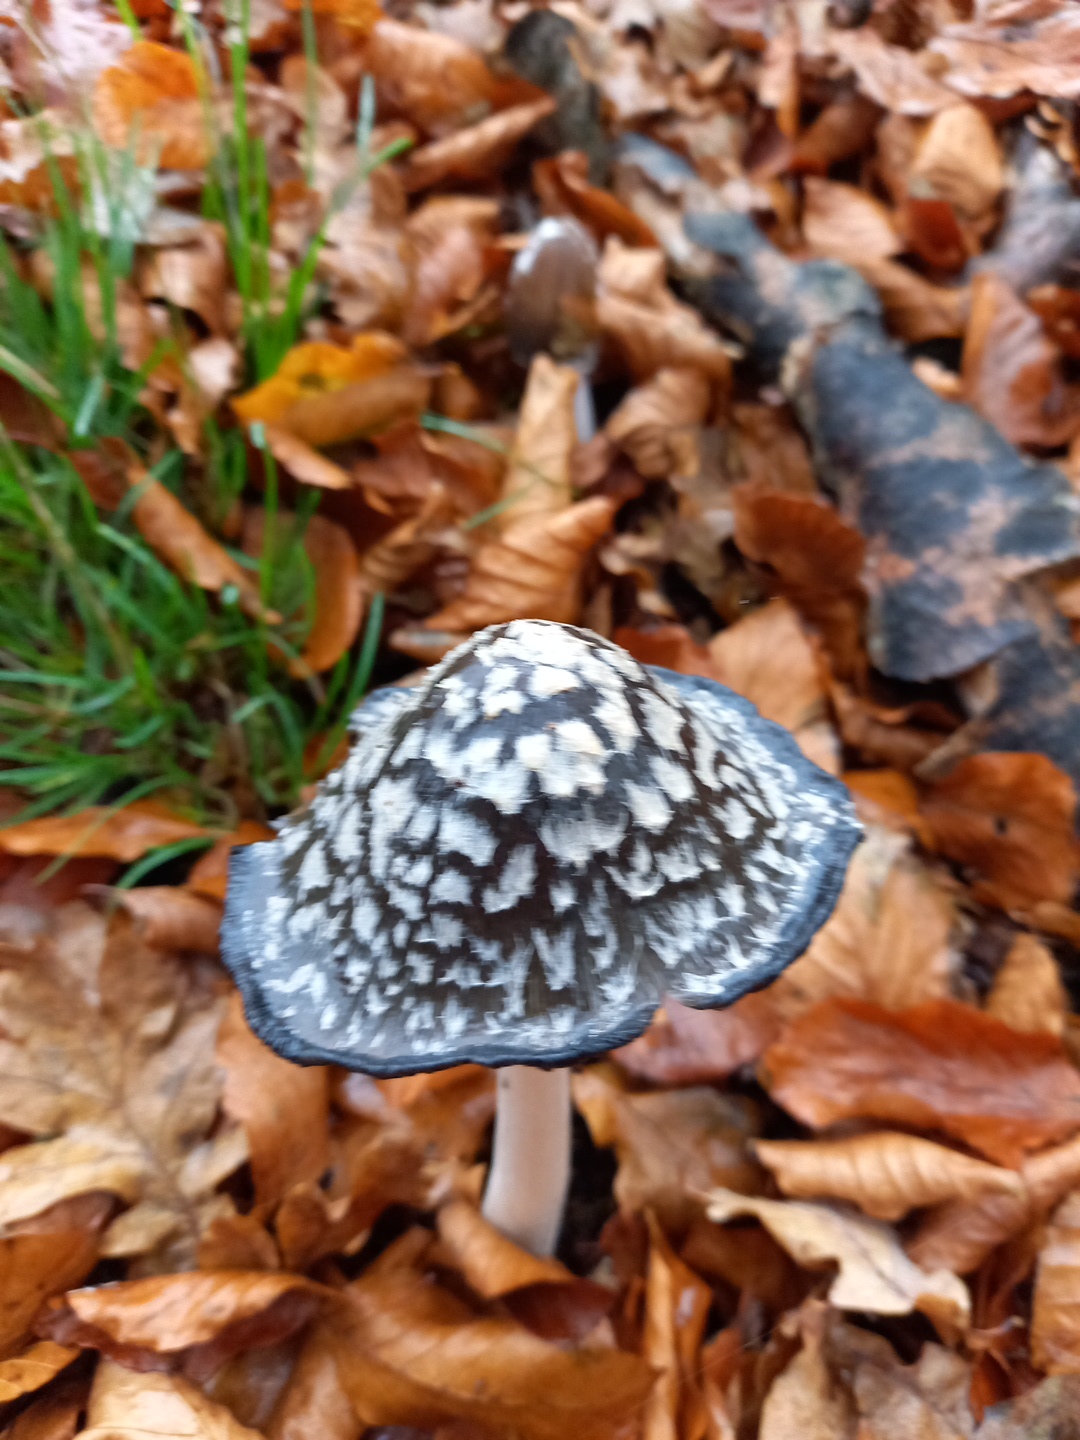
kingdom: Fungi
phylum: Basidiomycota
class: Agaricomycetes
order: Agaricales
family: Psathyrellaceae
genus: Coprinopsis
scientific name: Coprinopsis picacea
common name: skade-blækhat
